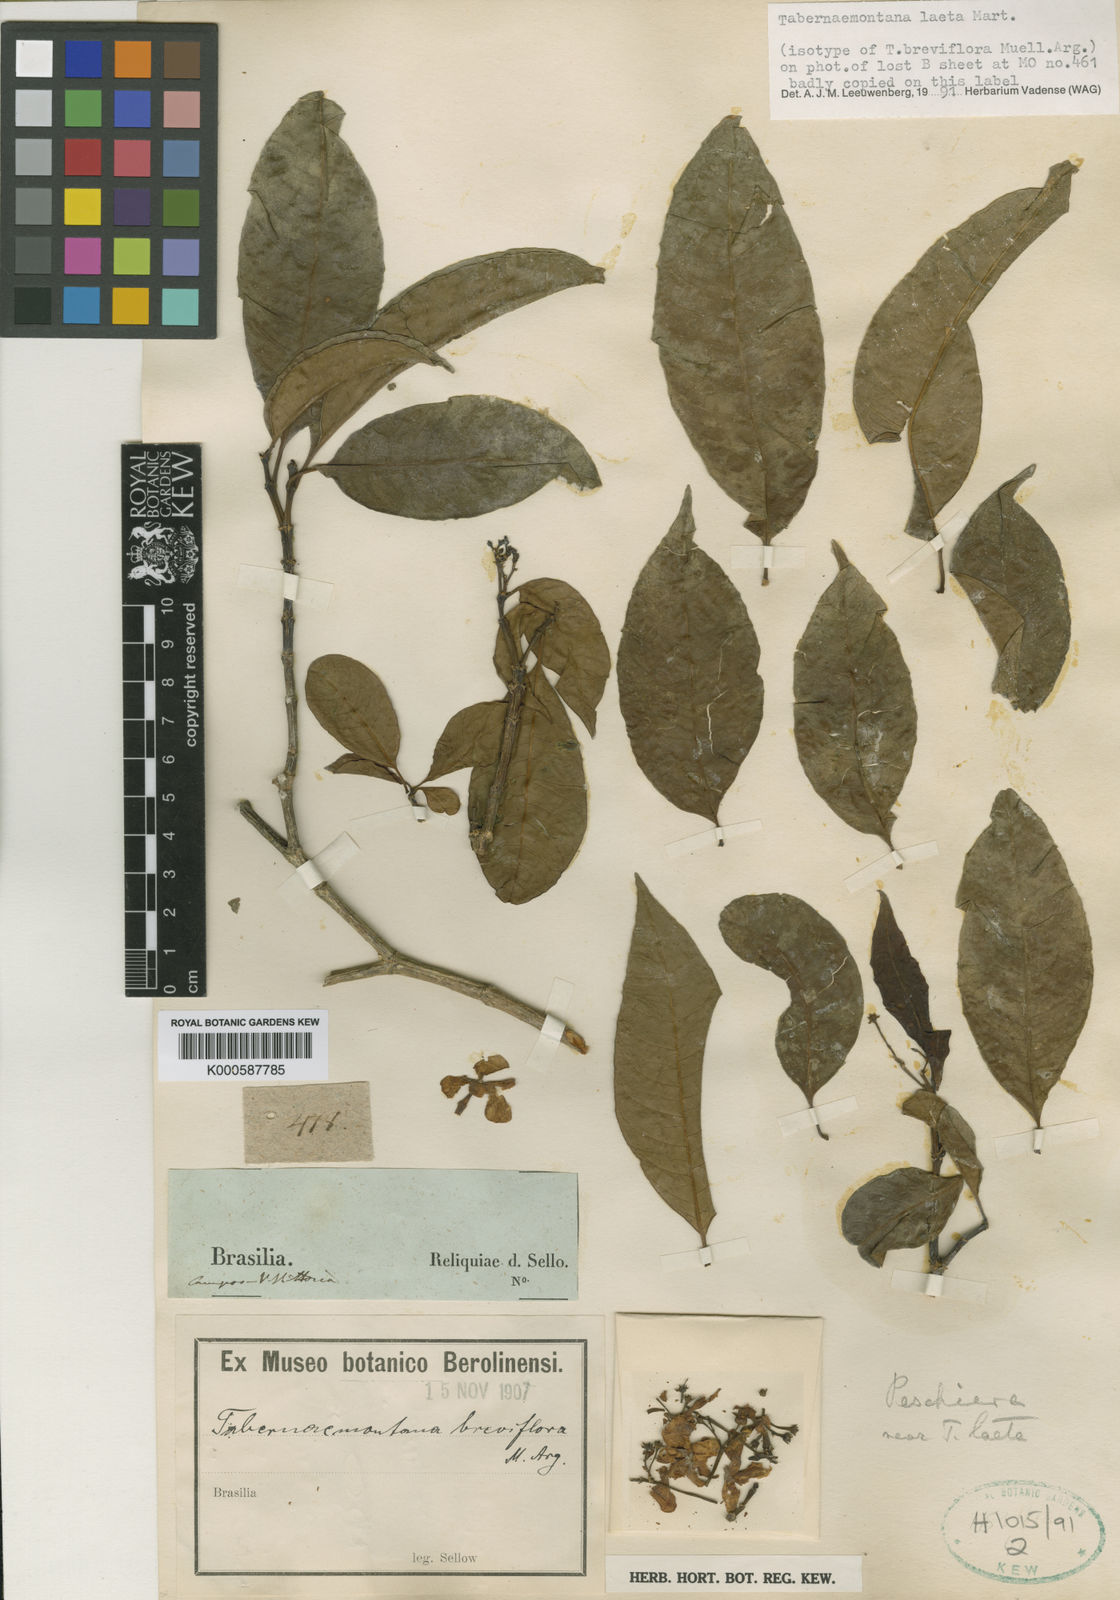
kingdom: Plantae
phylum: Tracheophyta
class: Magnoliopsida
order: Gentianales
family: Apocynaceae
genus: Tabernaemontana
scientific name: Tabernaemontana laeta
